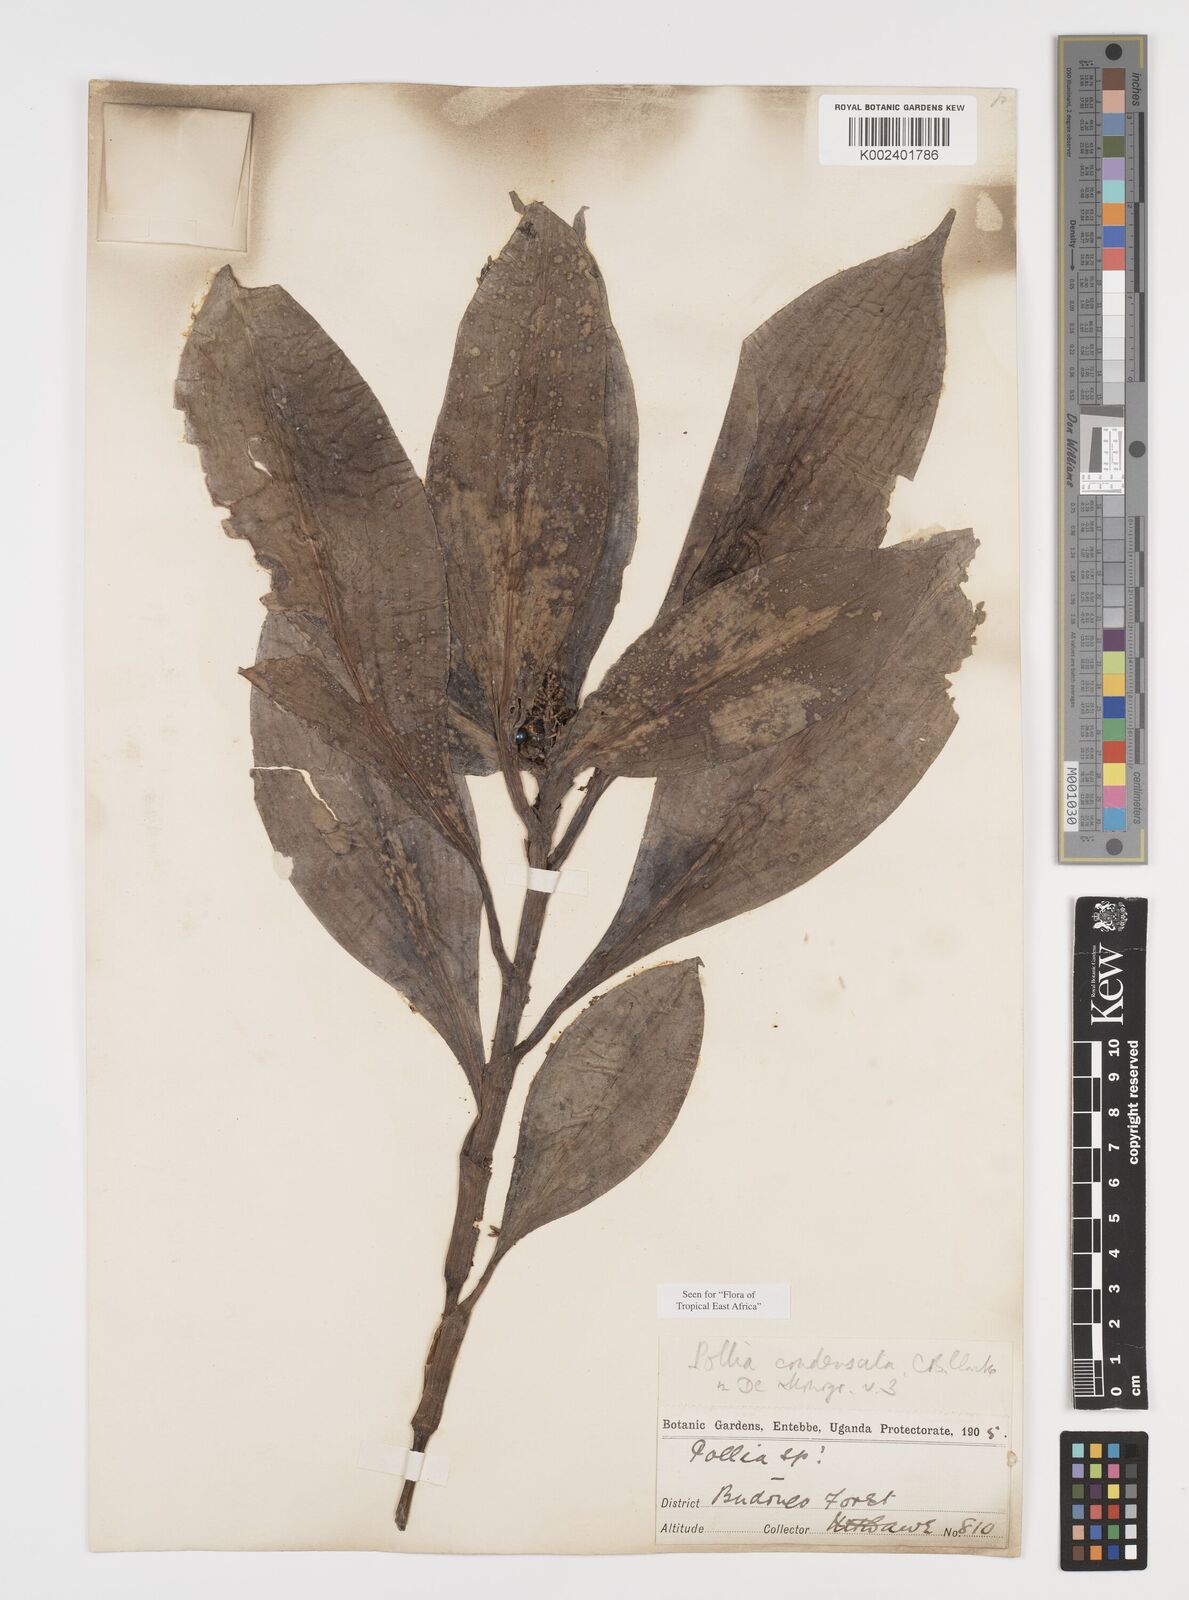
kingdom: Plantae
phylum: Tracheophyta
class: Liliopsida
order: Commelinales
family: Commelinaceae
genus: Pollia
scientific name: Pollia condensata
